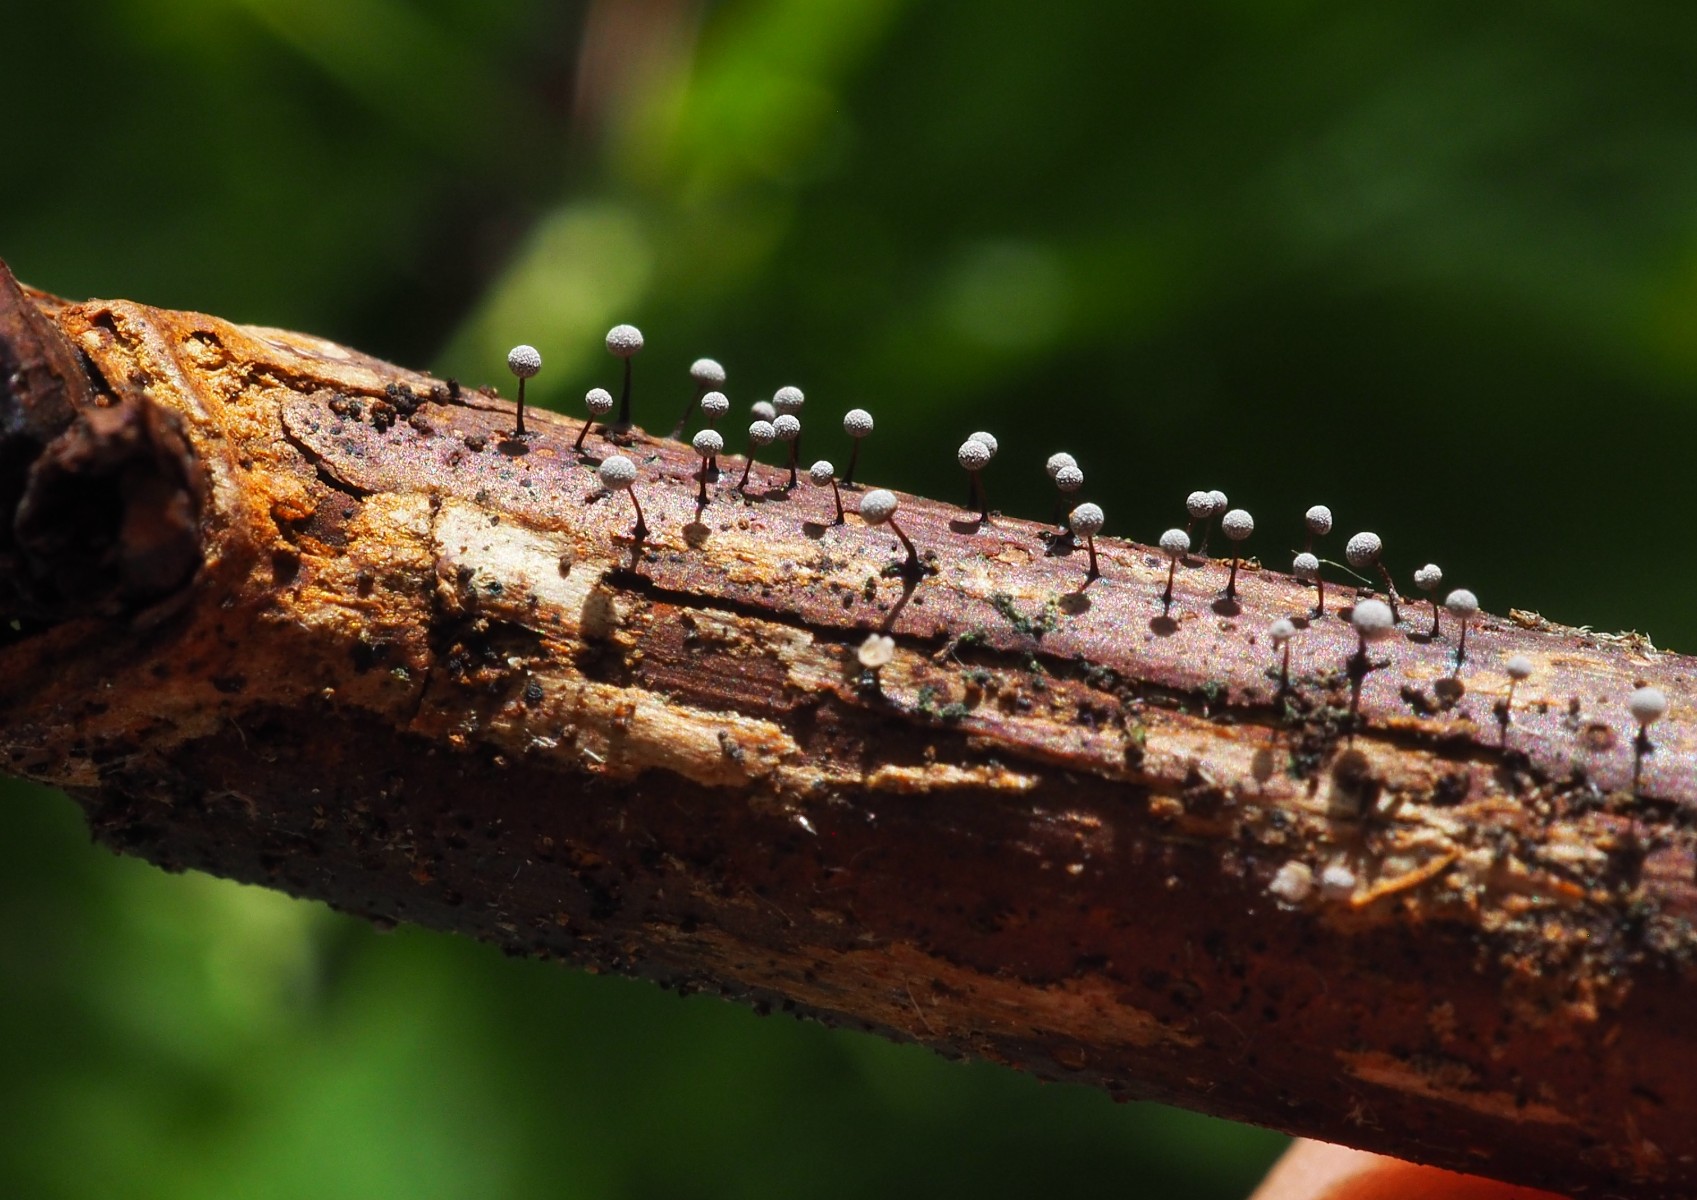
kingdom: Protozoa
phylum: Mycetozoa
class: Myxomycetes
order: Physarales
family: Physaraceae
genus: Physarum
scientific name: Physarum
